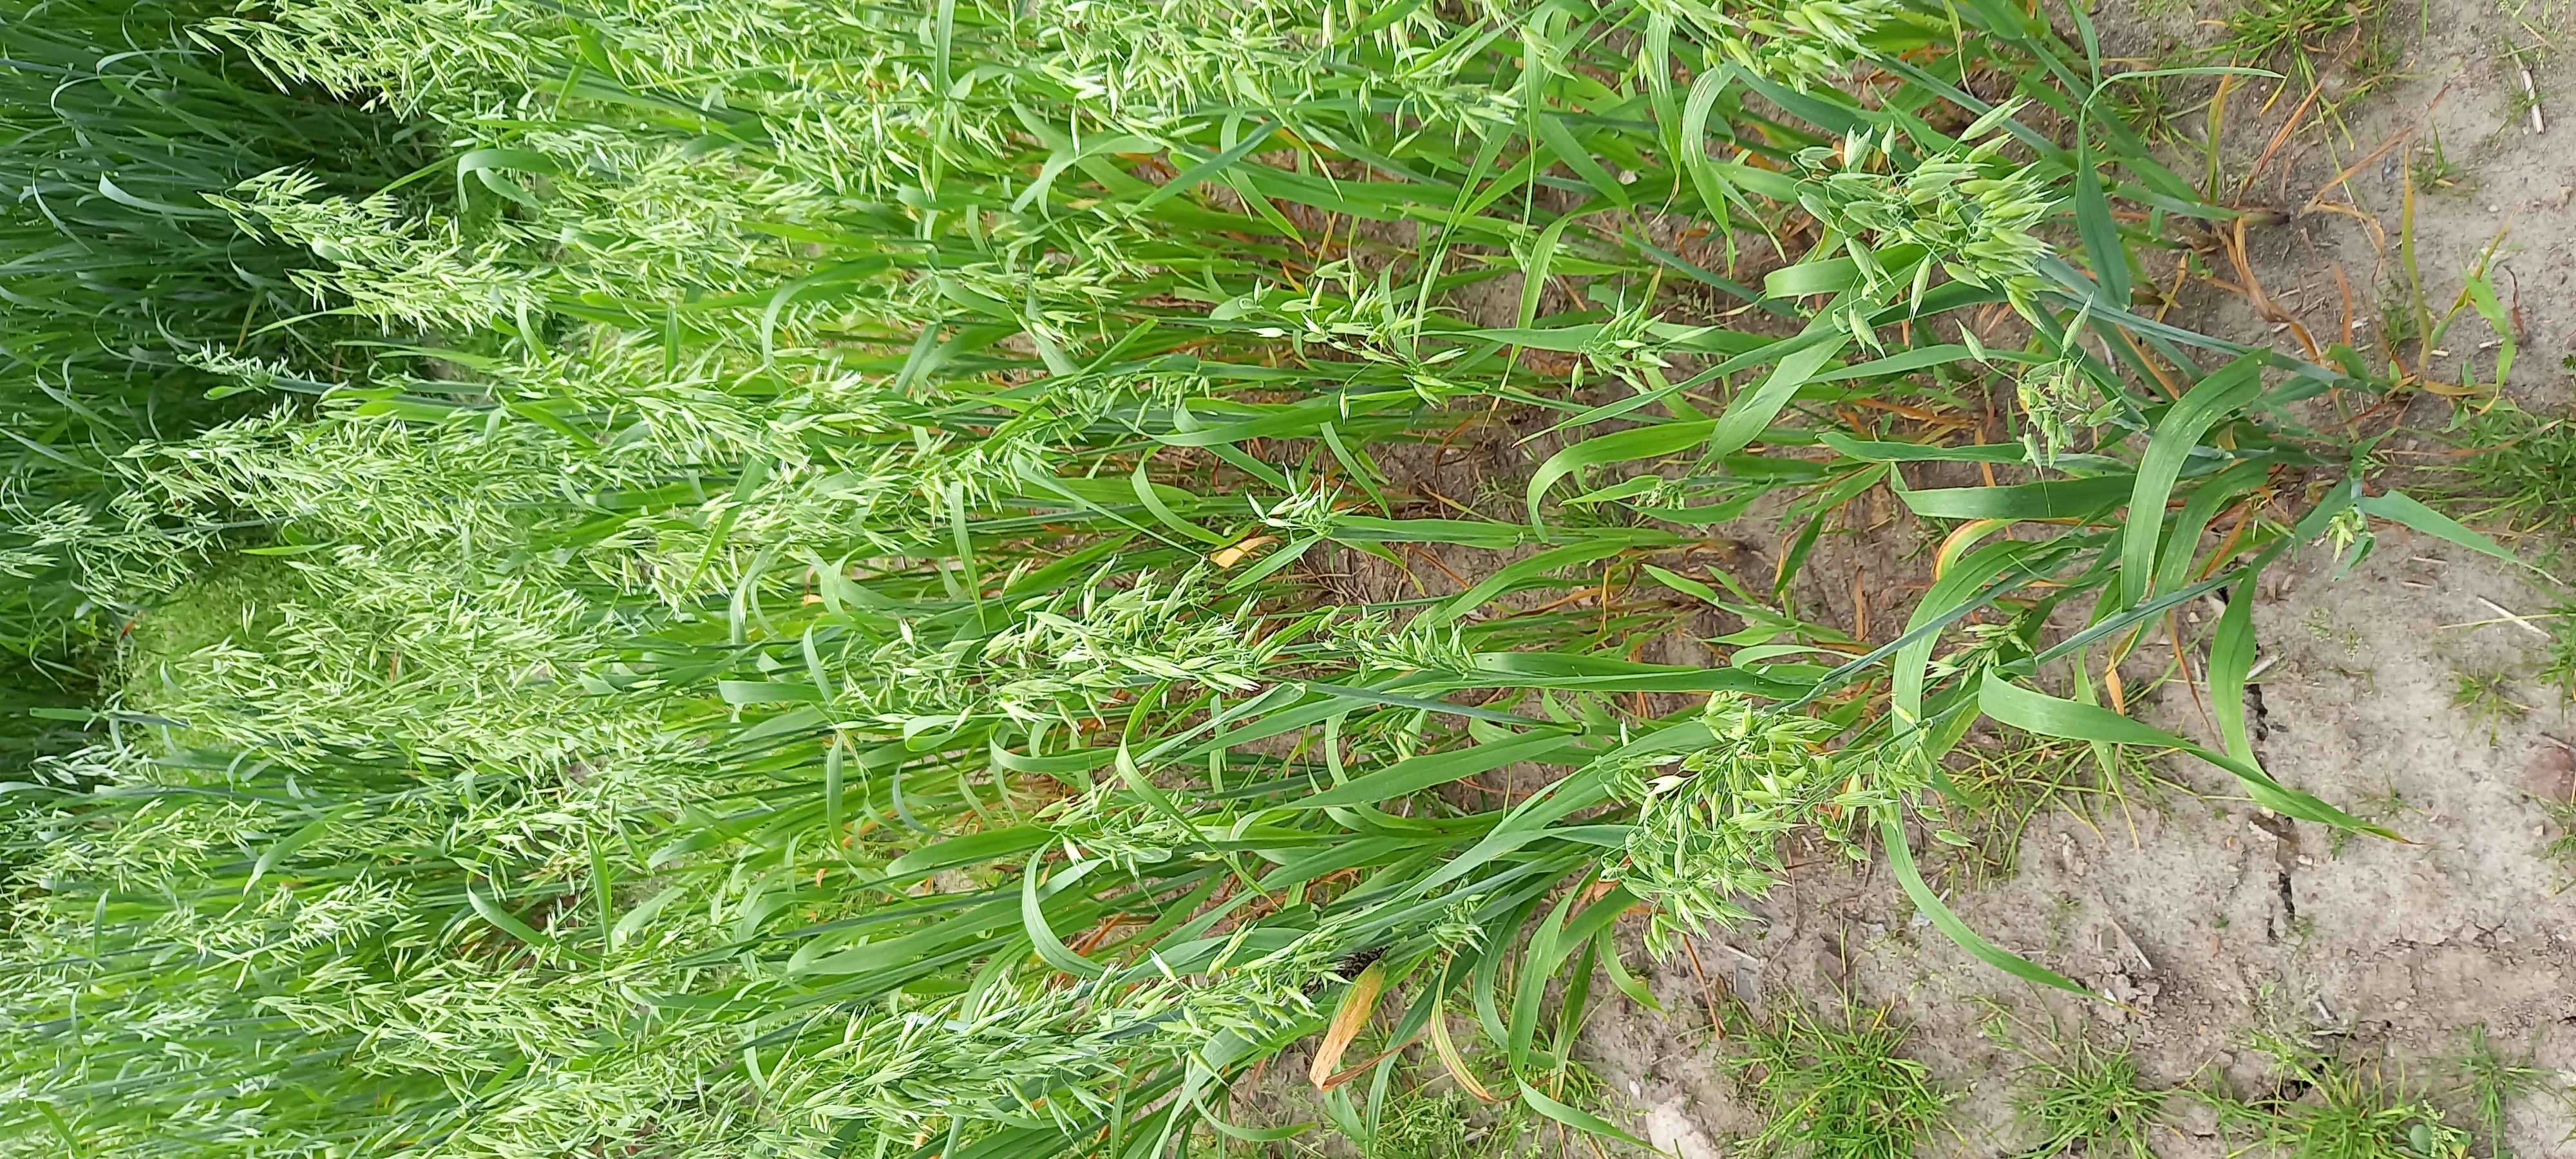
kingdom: Plantae
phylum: Tracheophyta
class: Liliopsida
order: Poales
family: Poaceae
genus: Avena
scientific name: Avena sativa
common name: Oat
